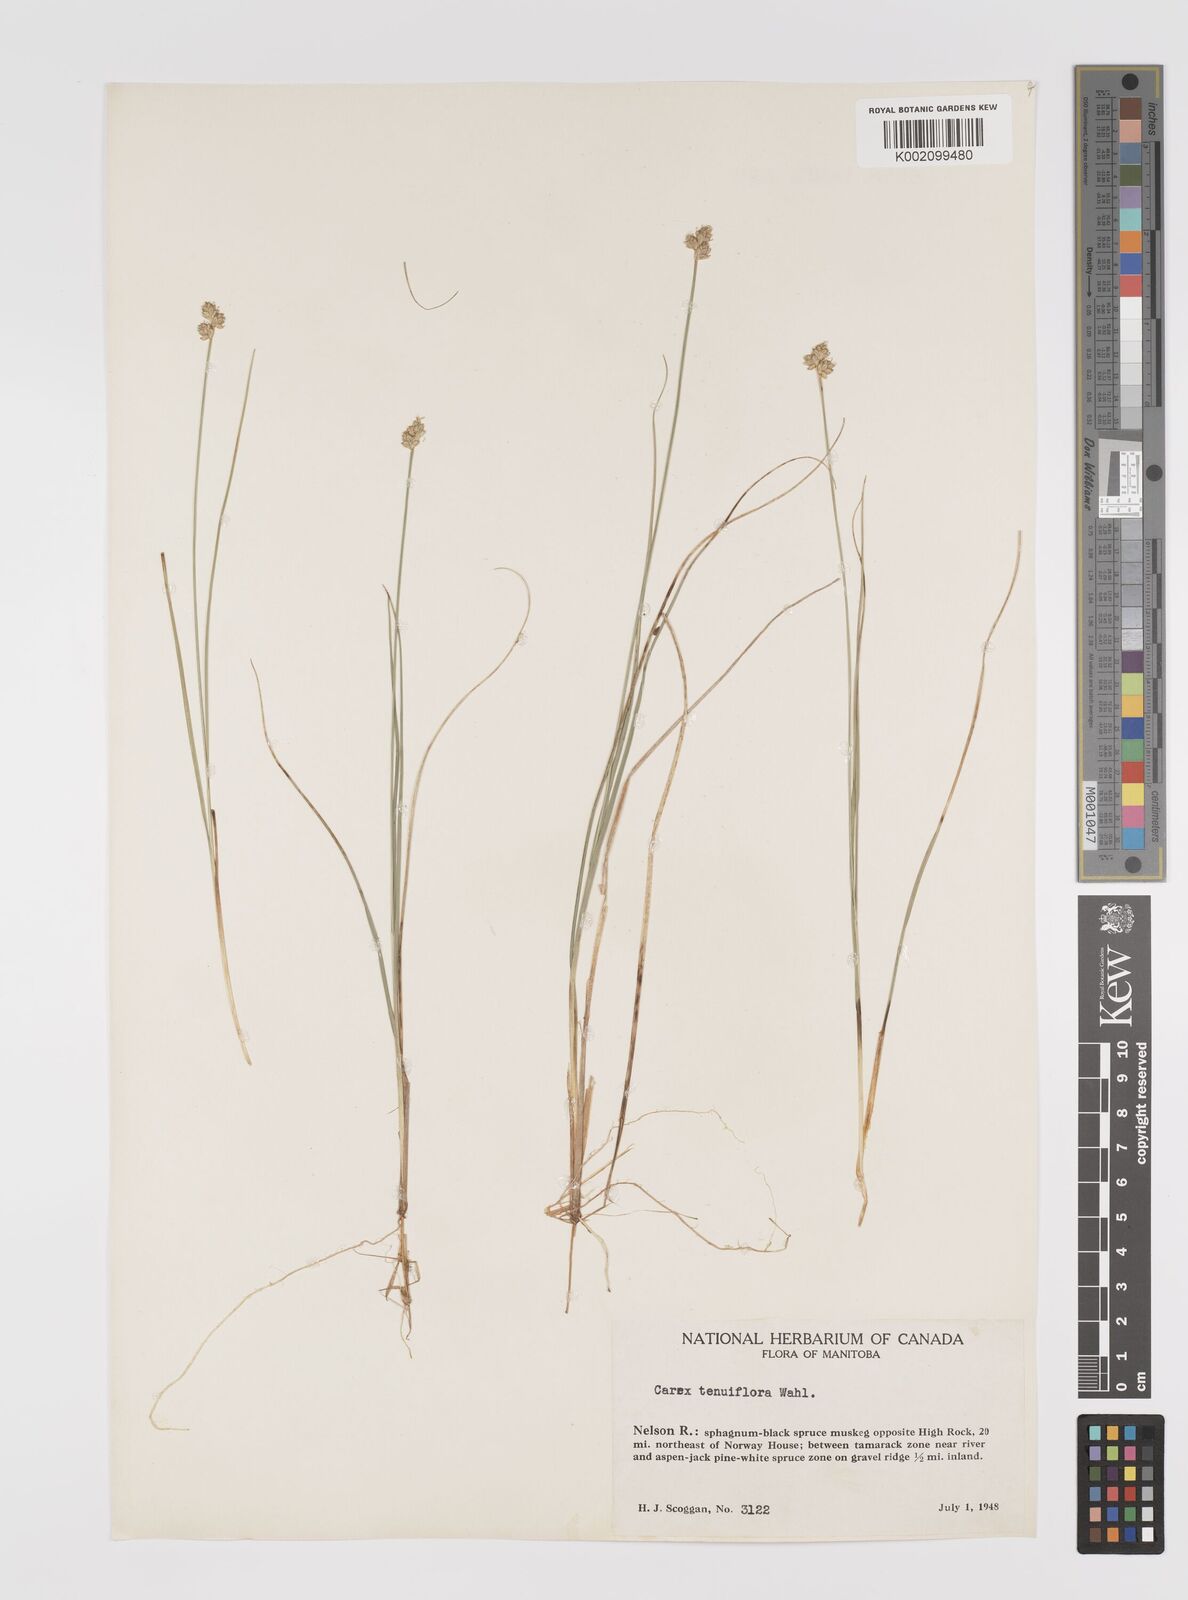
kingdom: Plantae
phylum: Tracheophyta
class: Liliopsida
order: Poales
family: Cyperaceae
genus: Carex
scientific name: Carex tenuiflora
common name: Sparse-flowered sedge
